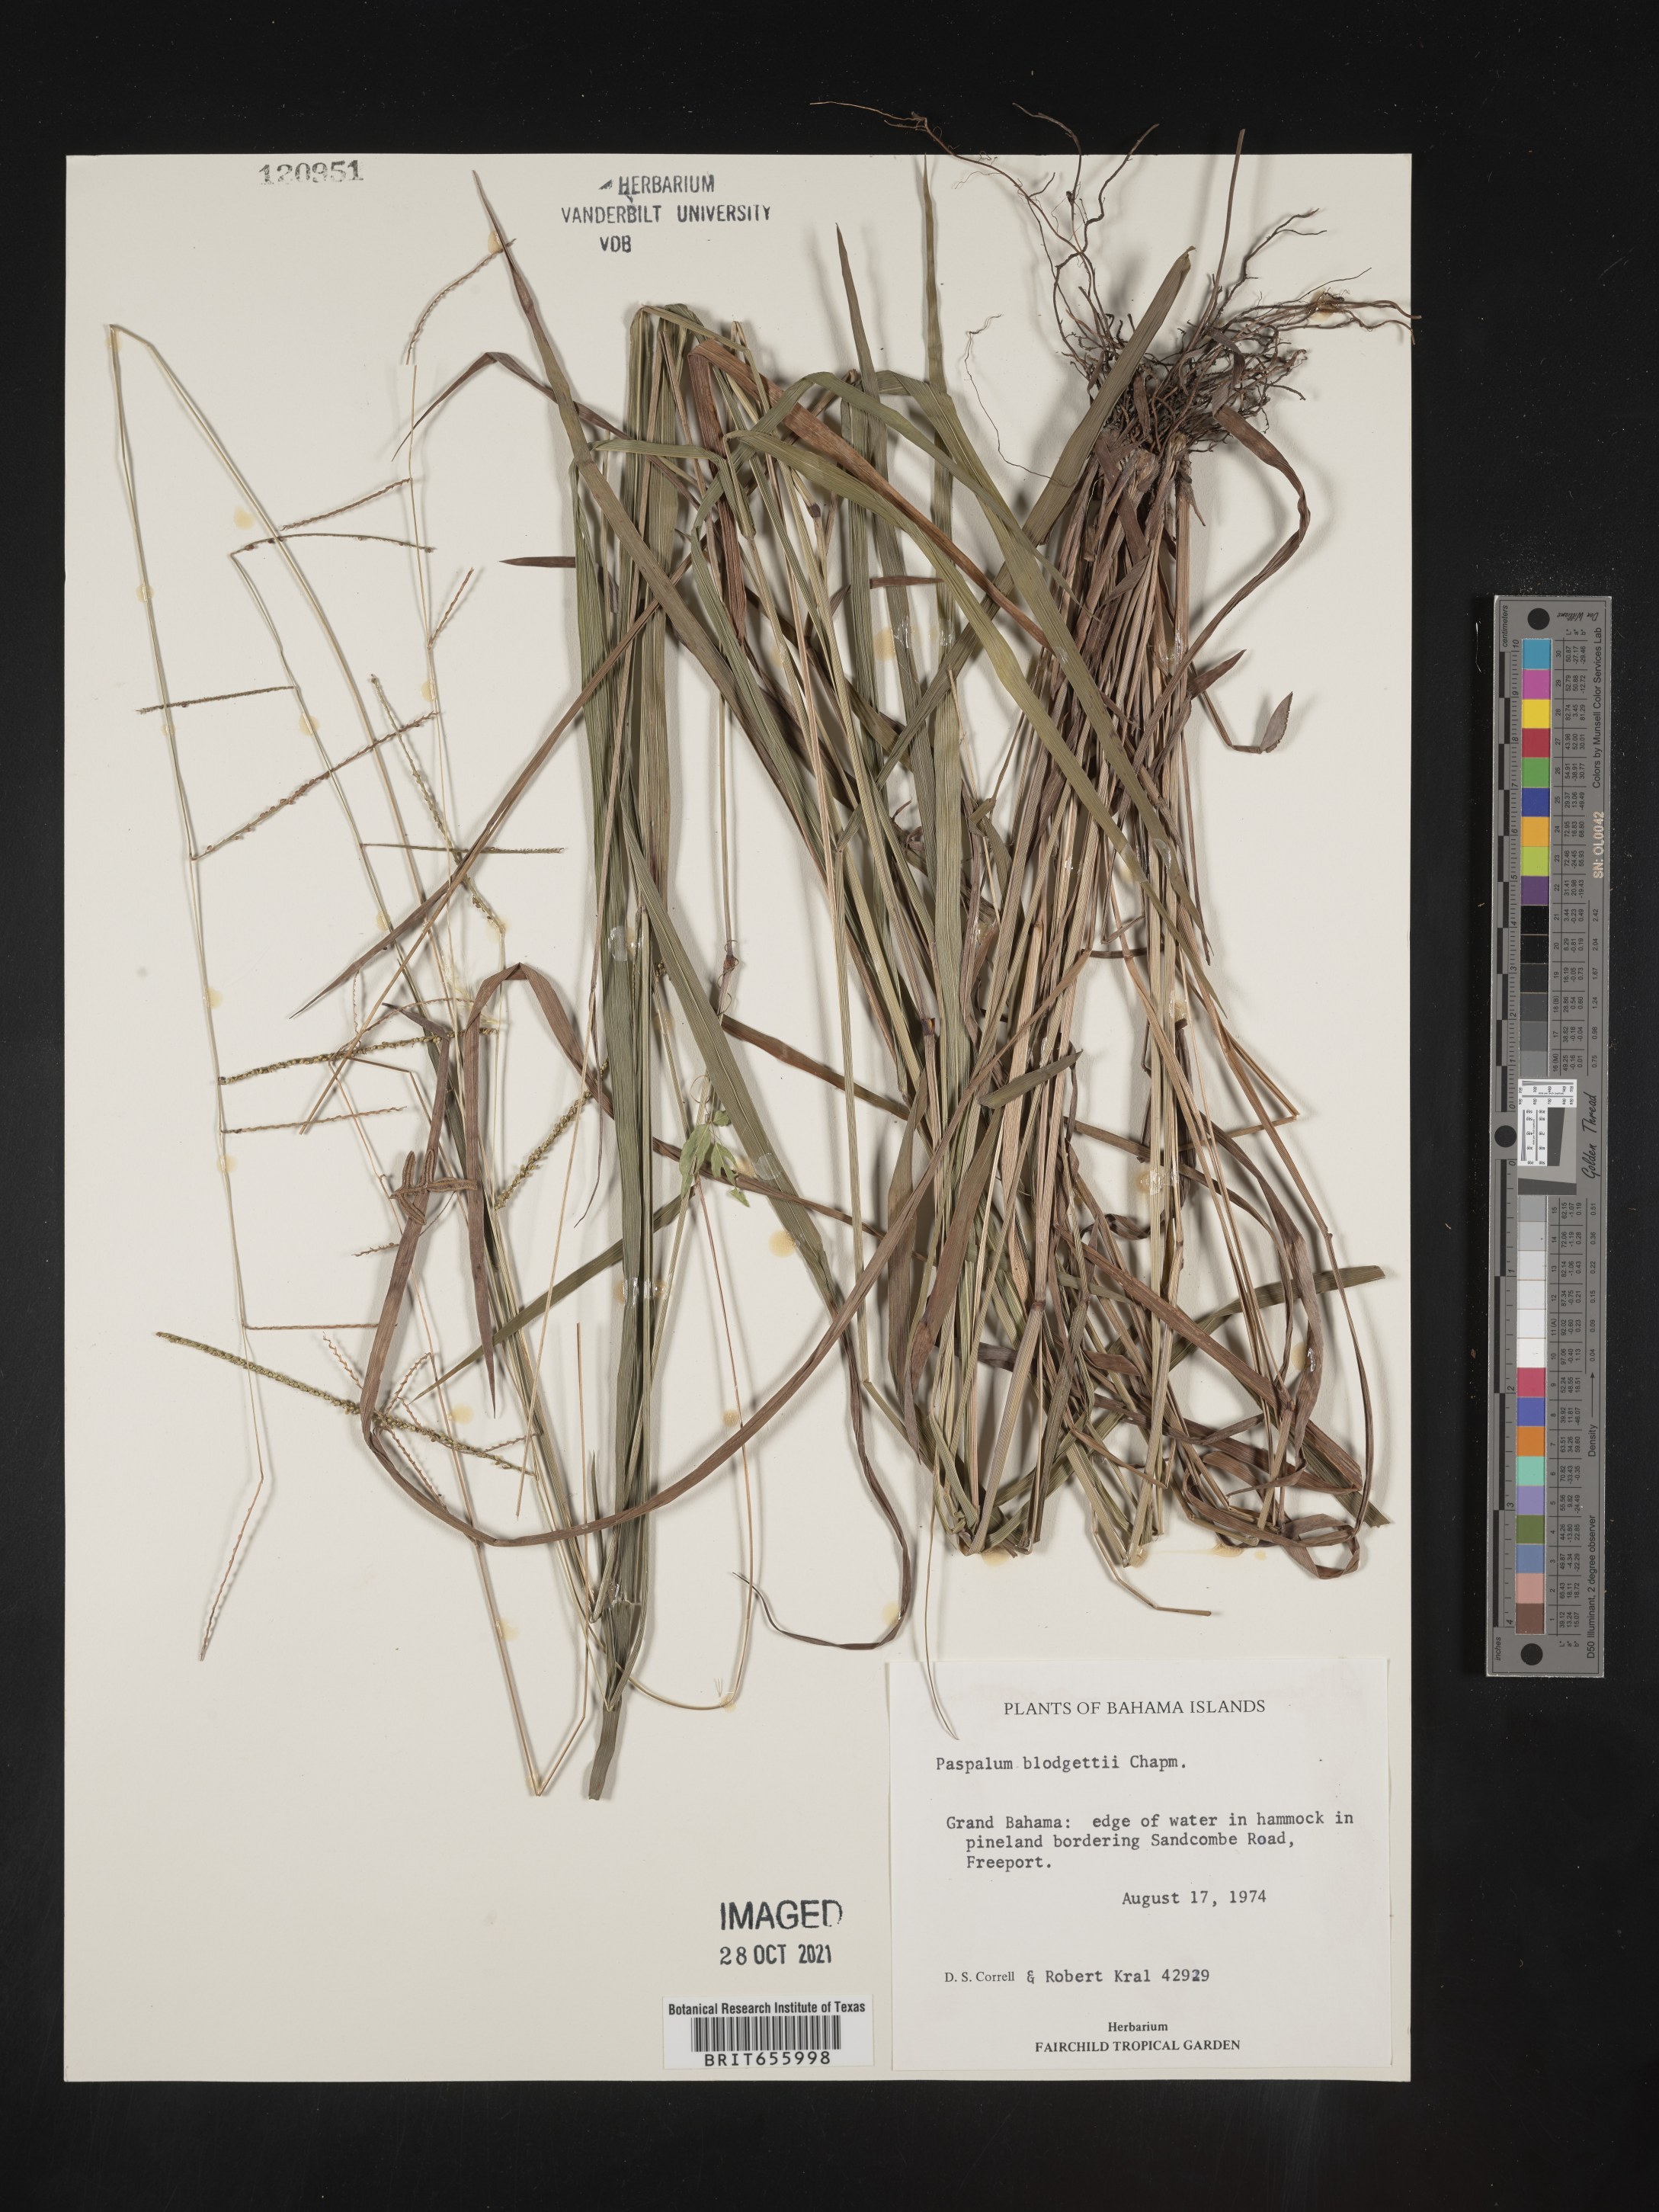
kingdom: Plantae
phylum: Tracheophyta
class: Liliopsida
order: Poales
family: Poaceae
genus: Paspalum
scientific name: Paspalum
